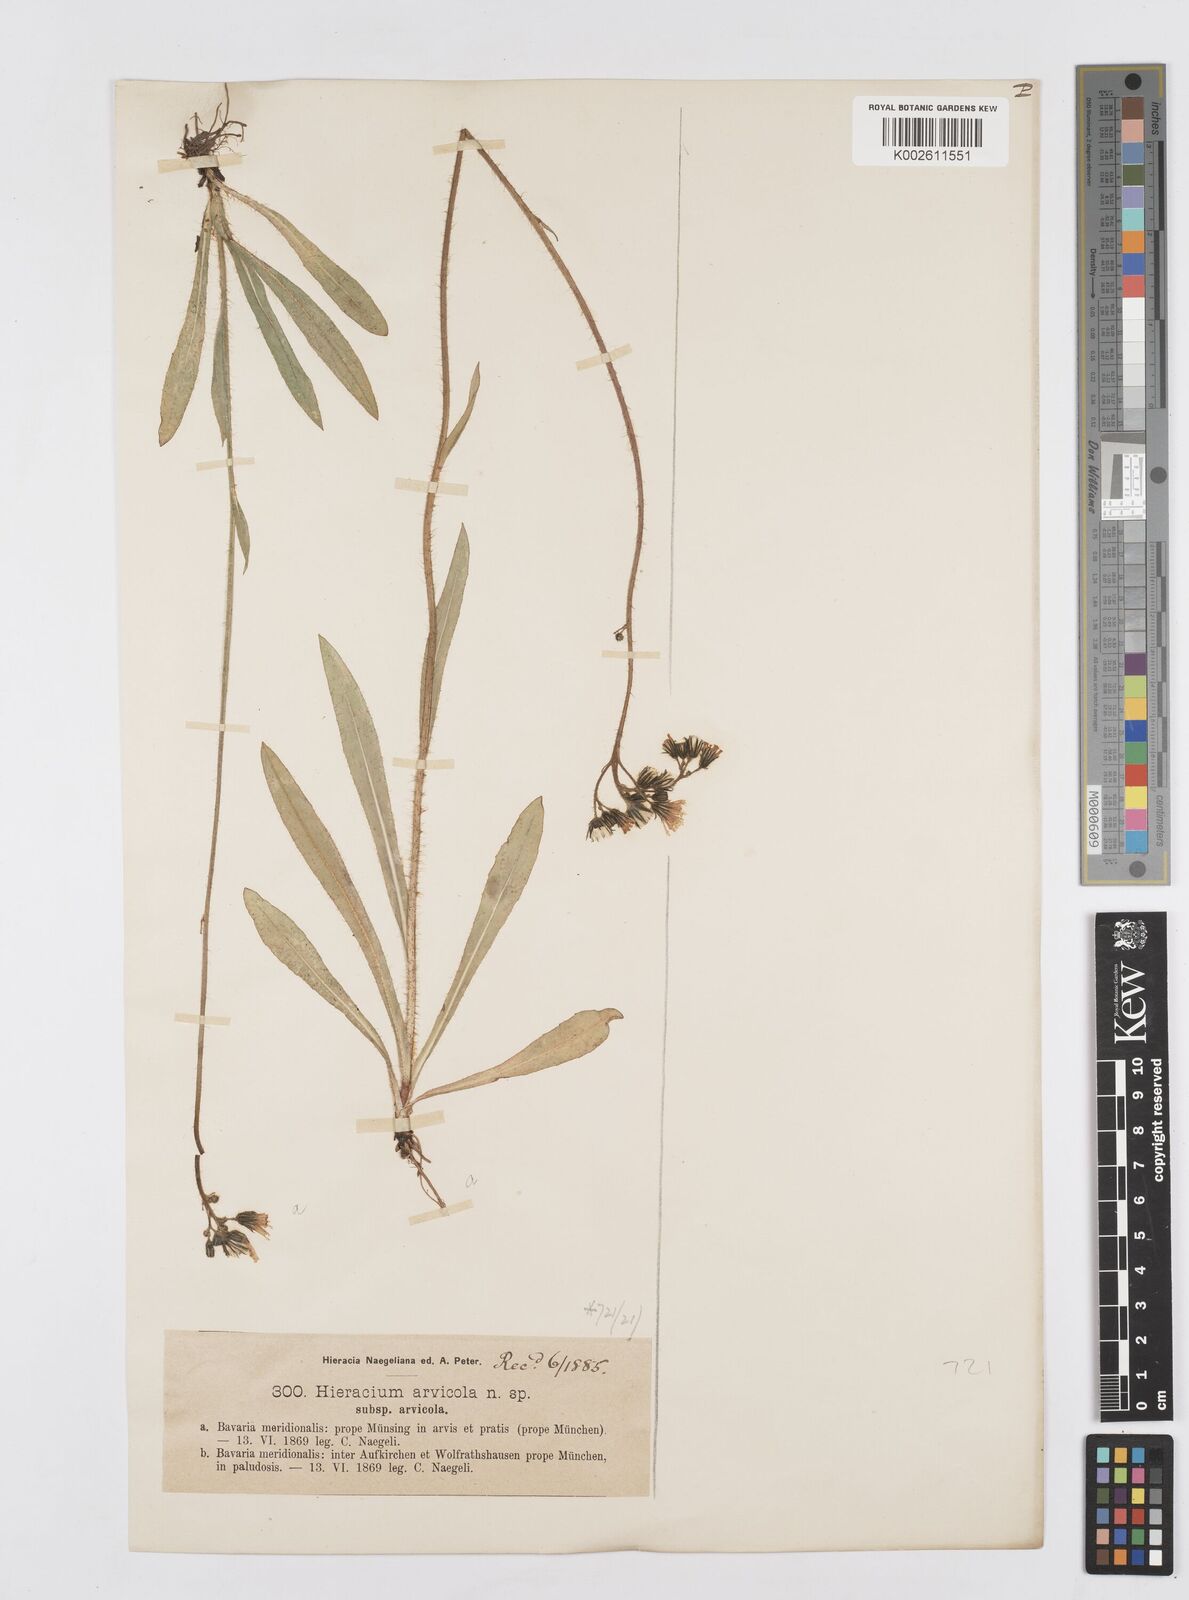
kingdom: Plantae
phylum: Tracheophyta
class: Magnoliopsida
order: Asterales
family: Asteraceae
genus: Pilosella
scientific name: Pilosella erythrochrista
